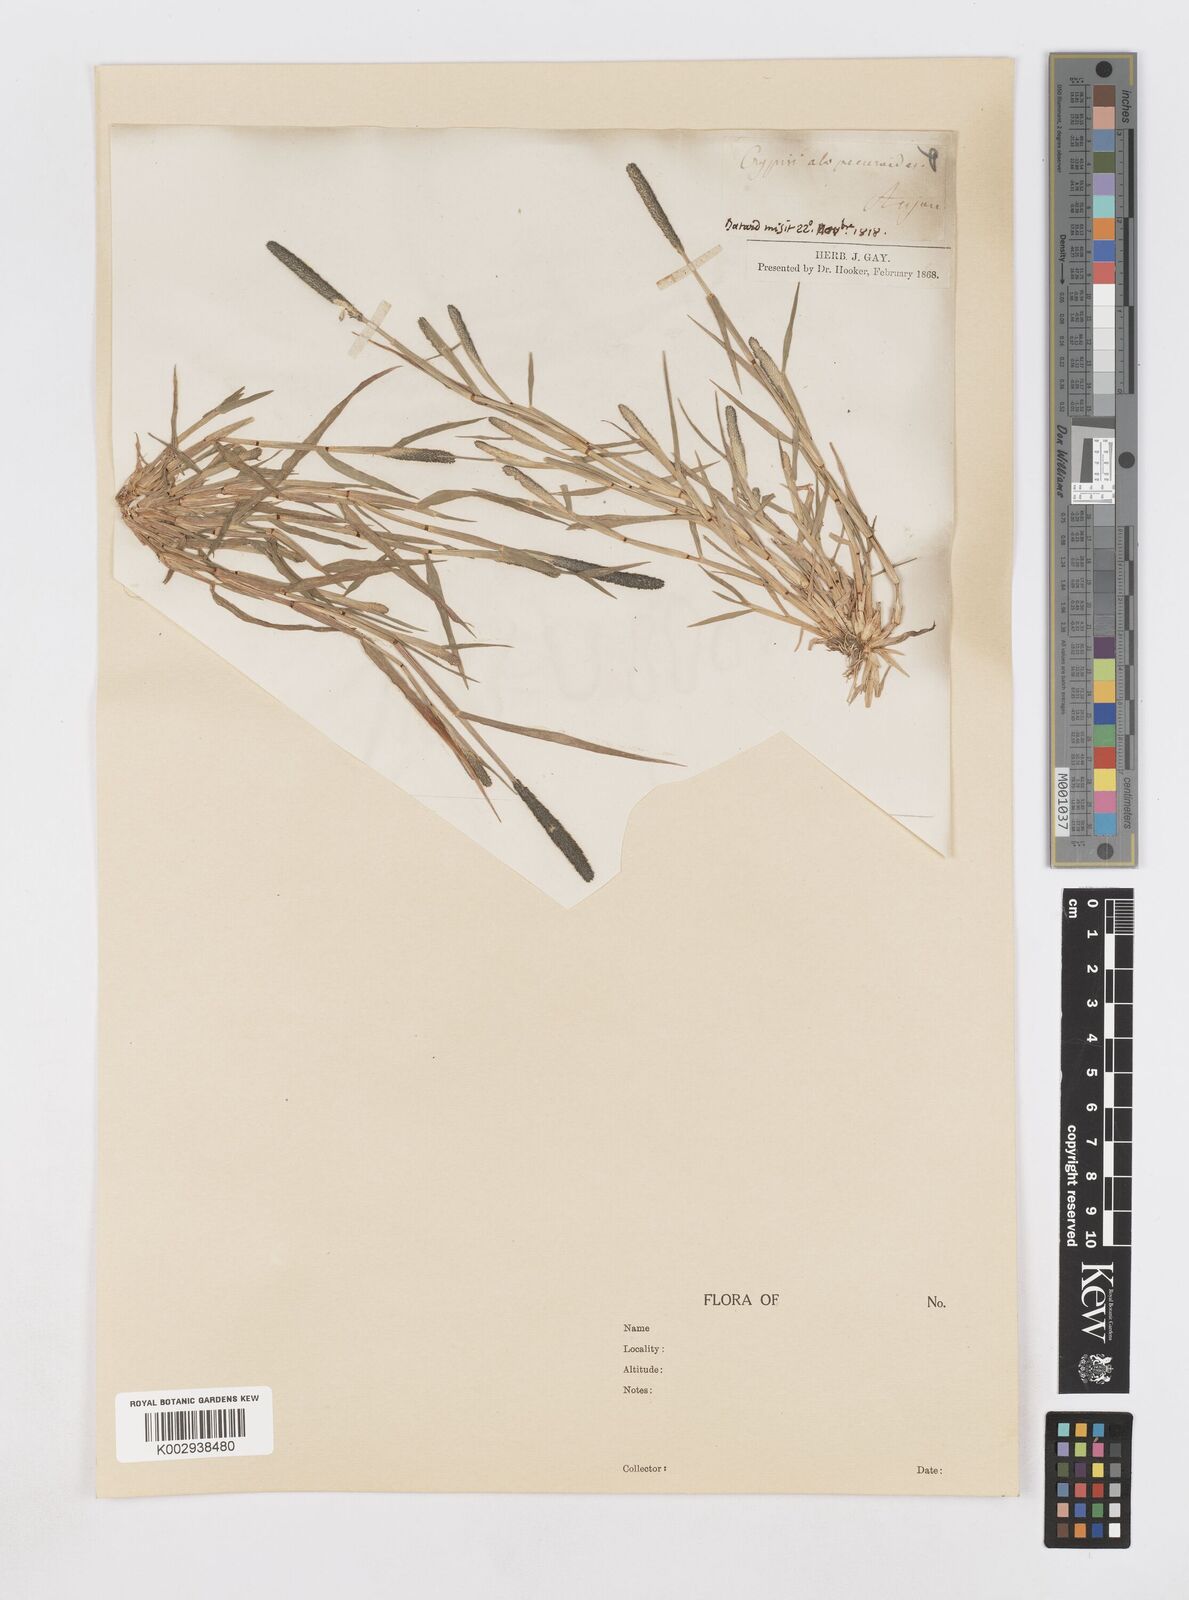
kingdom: Plantae
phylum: Tracheophyta
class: Liliopsida
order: Poales
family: Poaceae
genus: Sporobolus
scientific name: Sporobolus alopecuroides
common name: Foxtail pricklegrass
